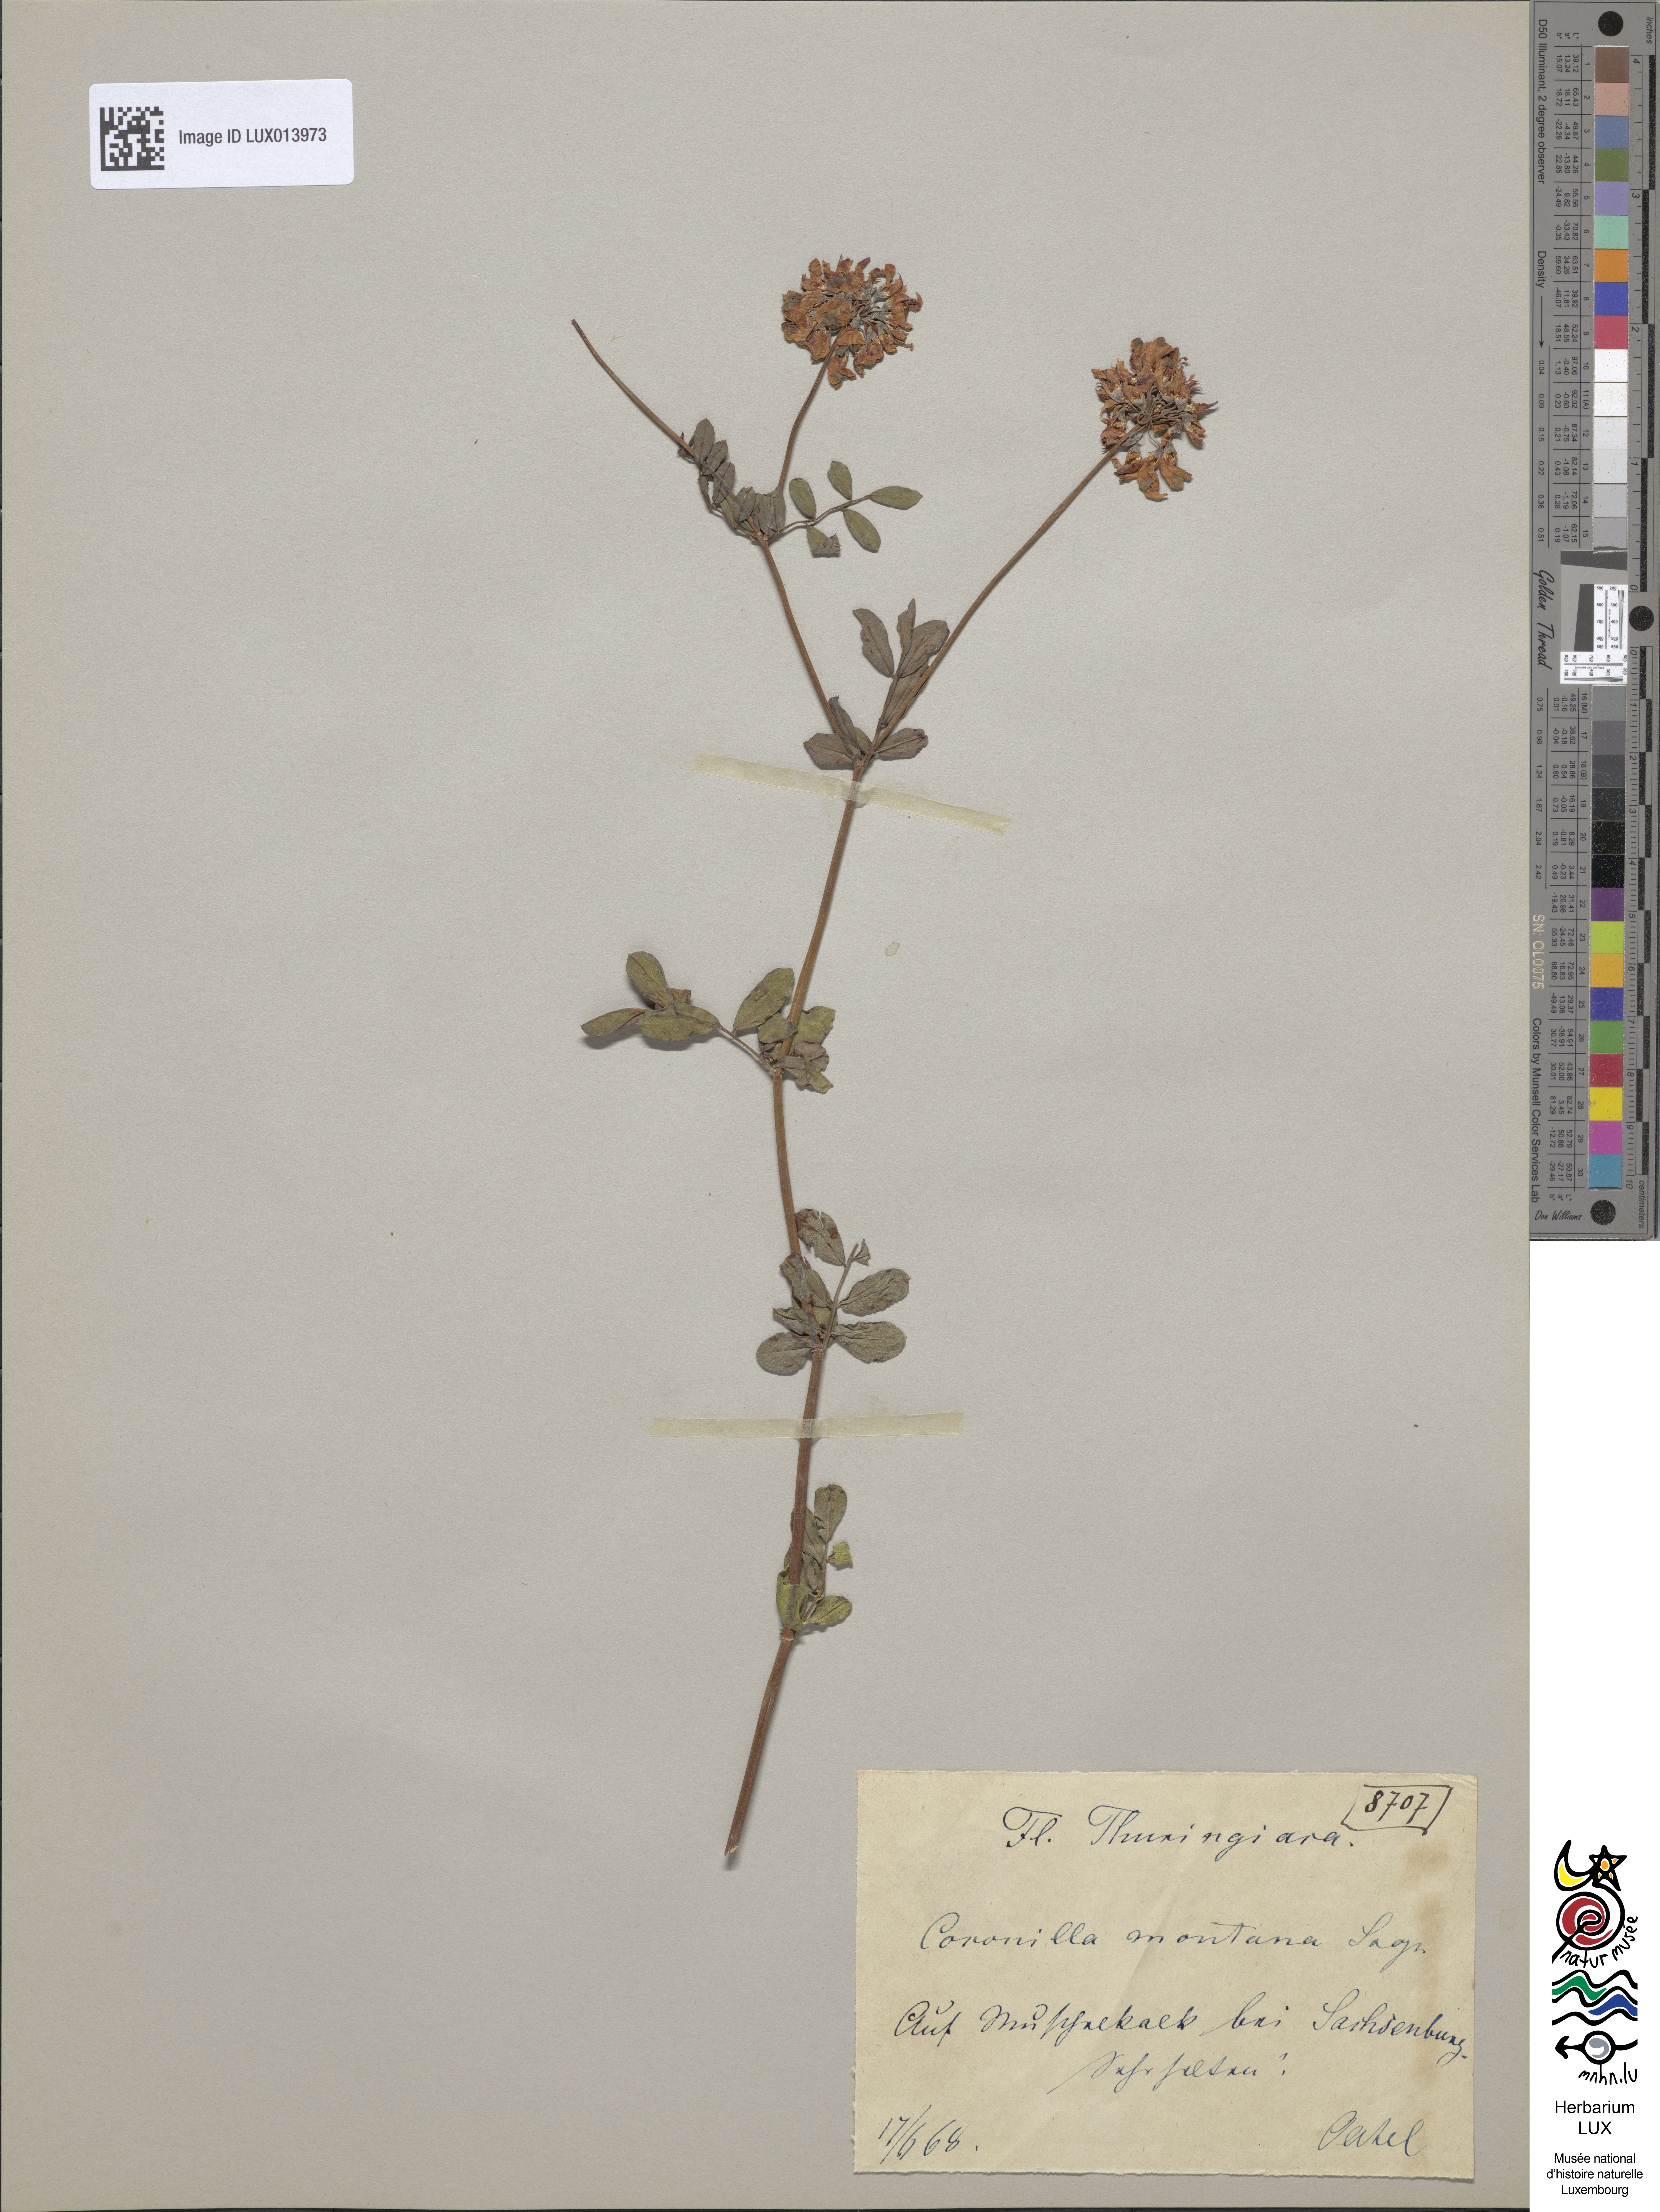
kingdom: Plantae
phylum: Tracheophyta
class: Magnoliopsida
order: Fabales
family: Fabaceae
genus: Coronilla
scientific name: Coronilla minima
